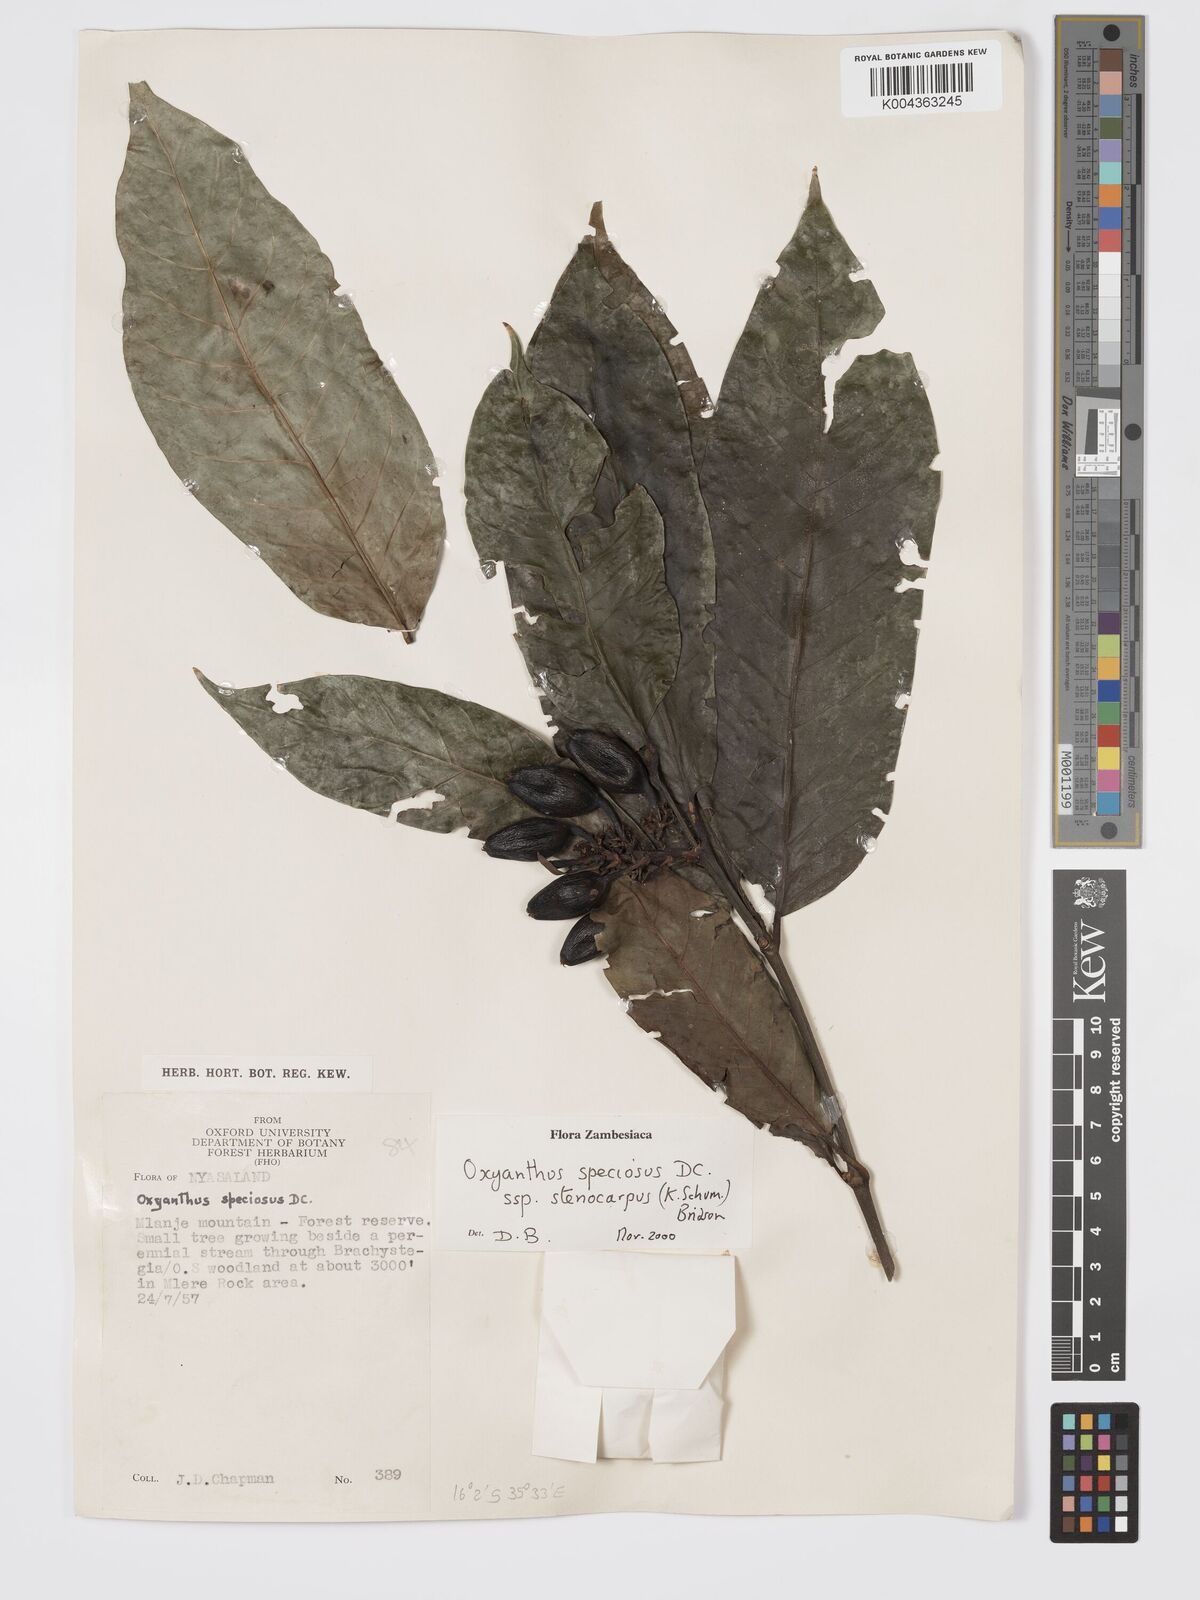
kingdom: Plantae
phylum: Tracheophyta
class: Magnoliopsida
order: Gentianales
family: Rubiaceae
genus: Oxyanthus
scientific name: Oxyanthus speciosus
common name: Whipstick loquat
